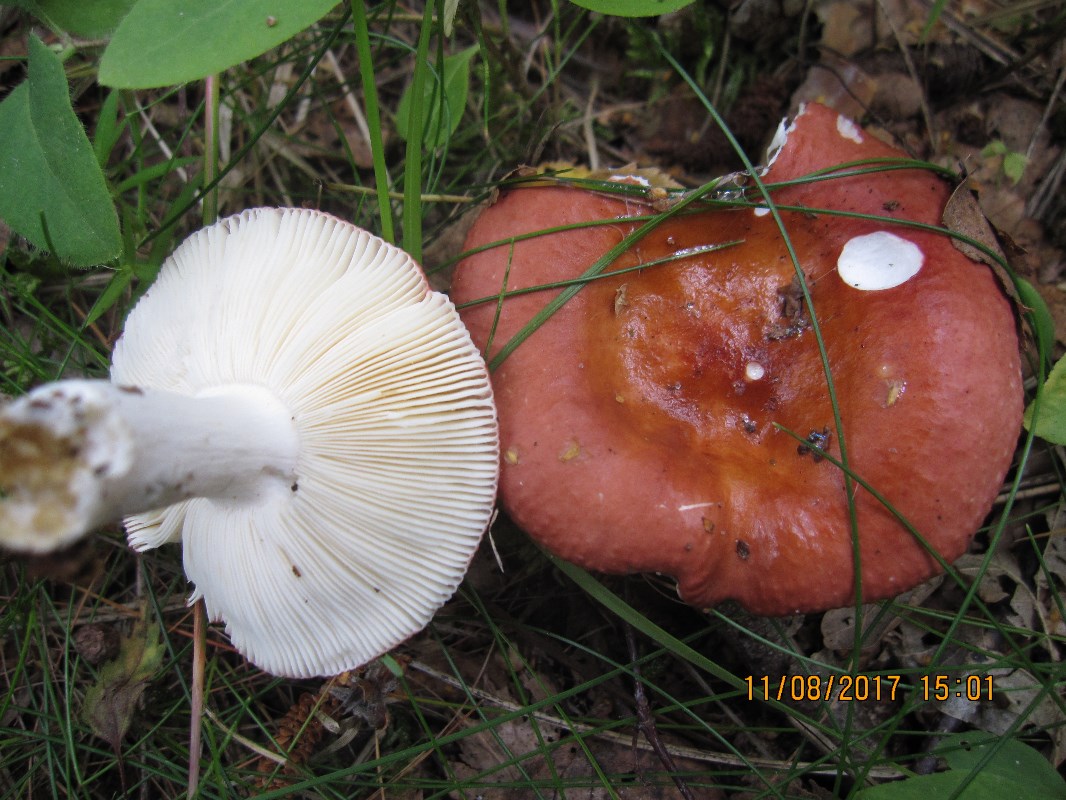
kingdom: Fungi
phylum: Basidiomycota
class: Agaricomycetes
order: Russulales
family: Russulaceae
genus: Russula
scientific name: Russula velenovskyi
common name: orangerød skørhat
